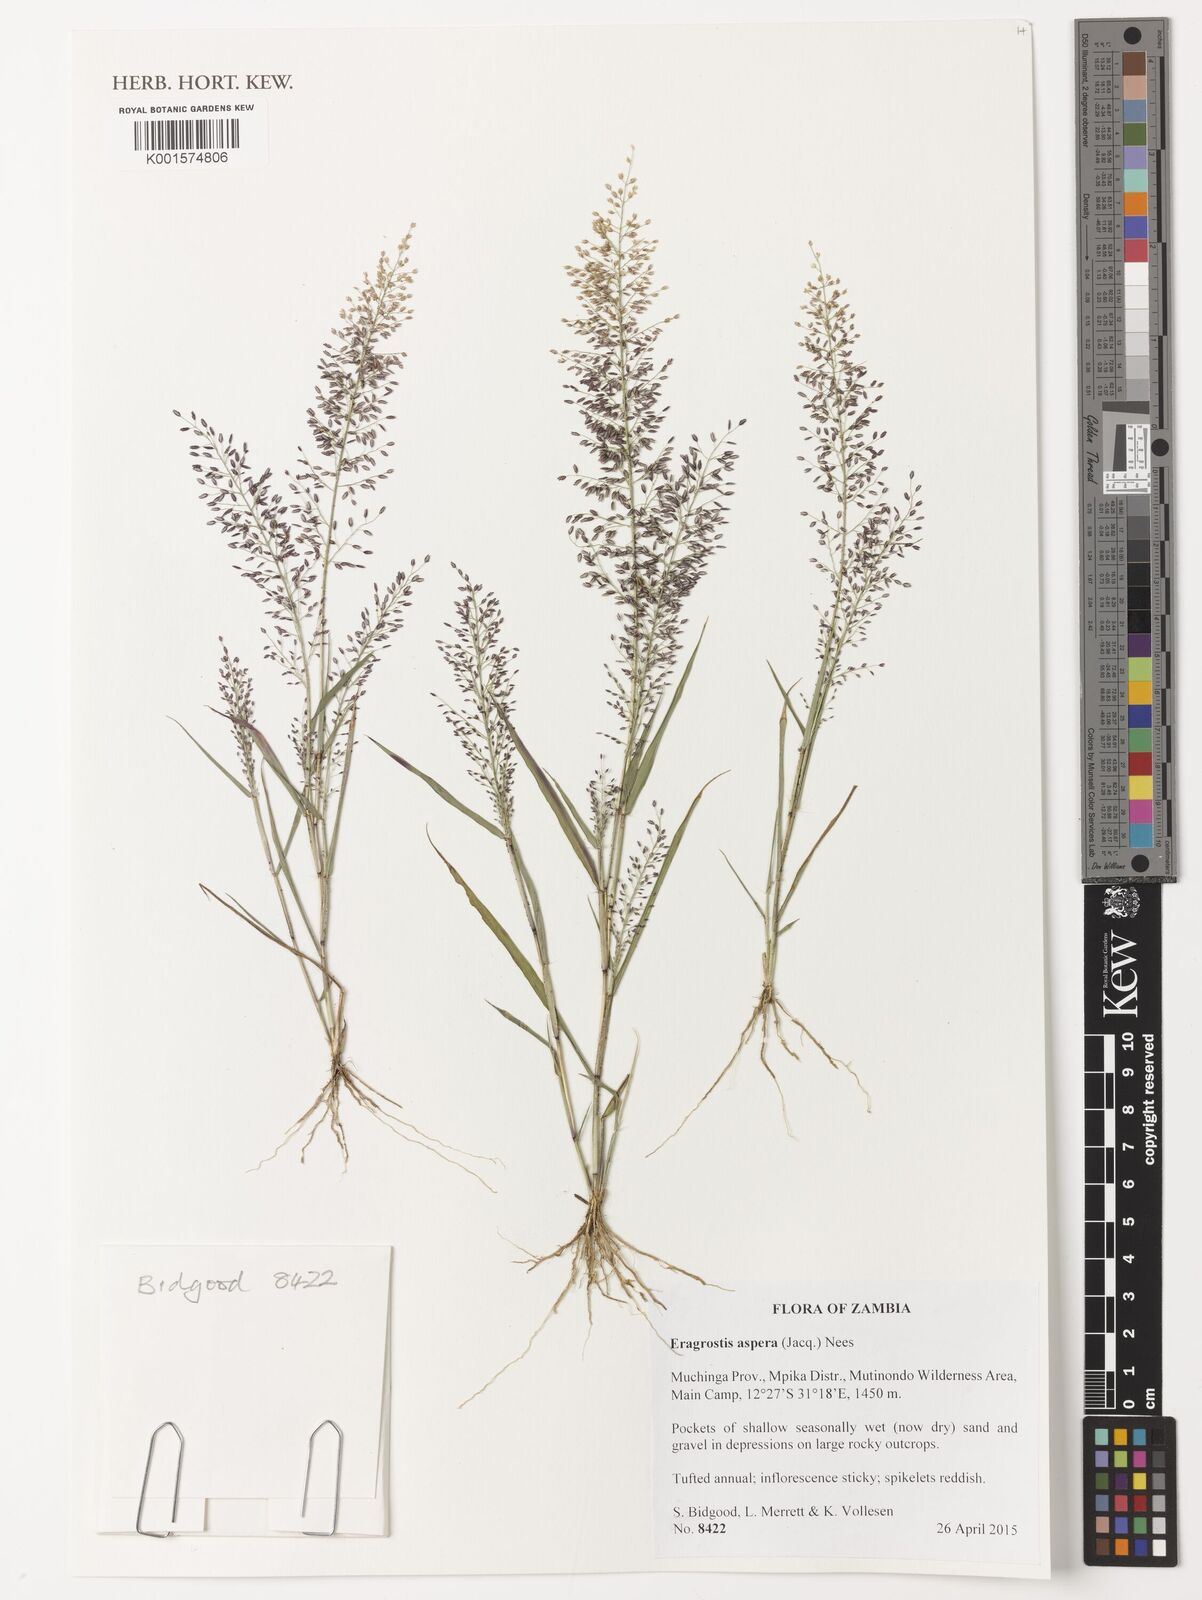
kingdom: Plantae
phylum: Tracheophyta
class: Liliopsida
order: Poales
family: Poaceae
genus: Eragrostis
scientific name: Eragrostis aspera
